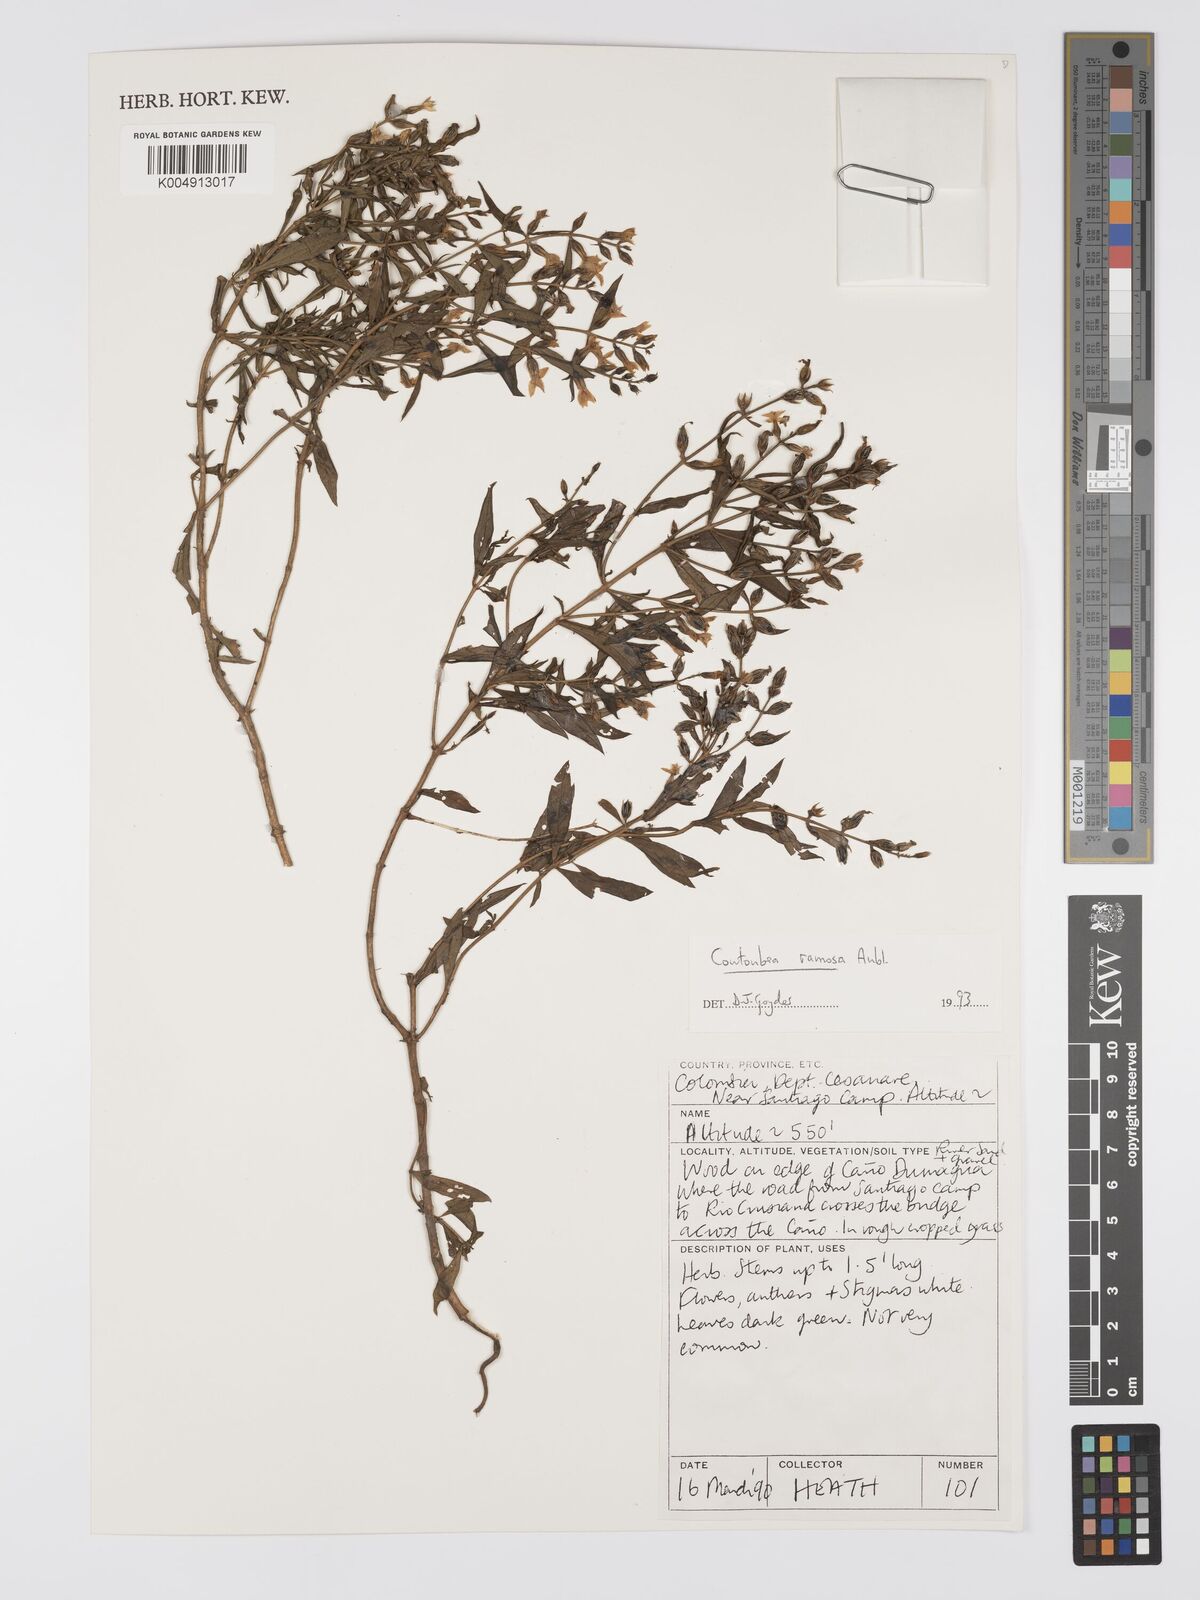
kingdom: Plantae
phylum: Tracheophyta
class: Magnoliopsida
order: Gentianales
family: Gentianaceae
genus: Coutoubea
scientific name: Coutoubea ramosa
